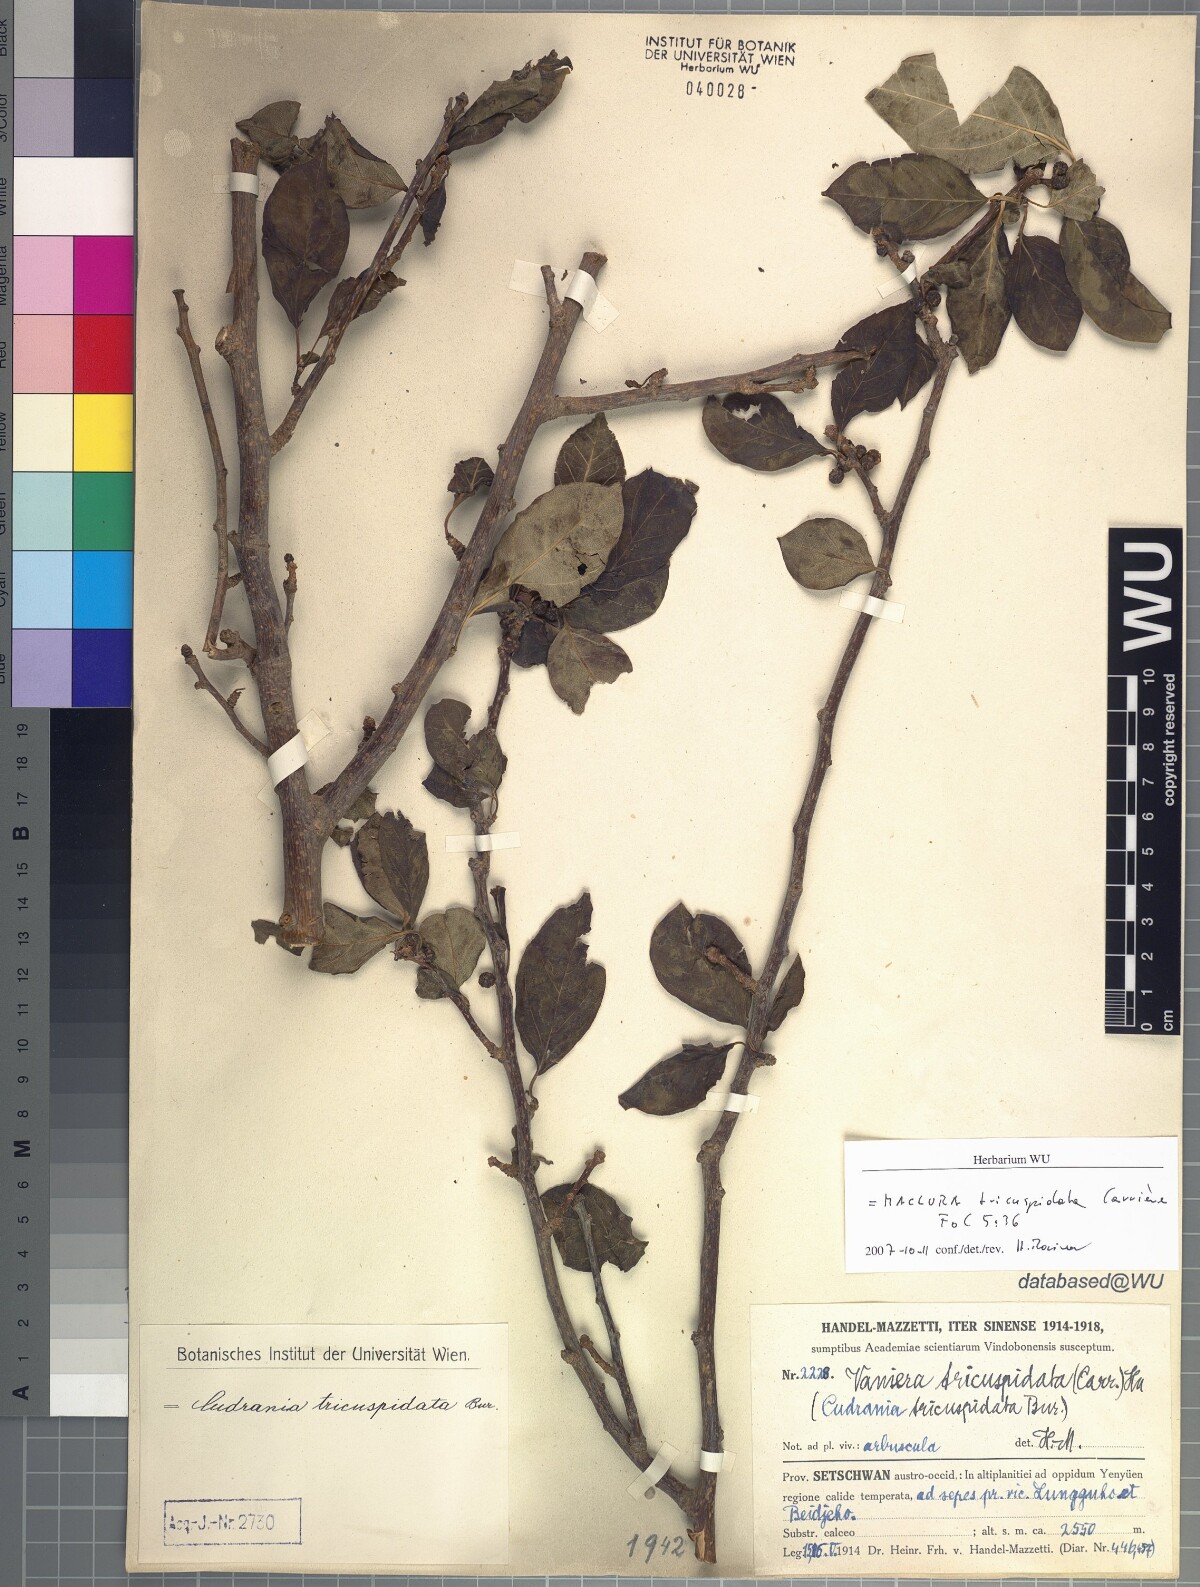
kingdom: Plantae
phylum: Tracheophyta
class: Magnoliopsida
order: Rosales
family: Moraceae
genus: Maclura
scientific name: Maclura tricuspidata
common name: Storehousebush
